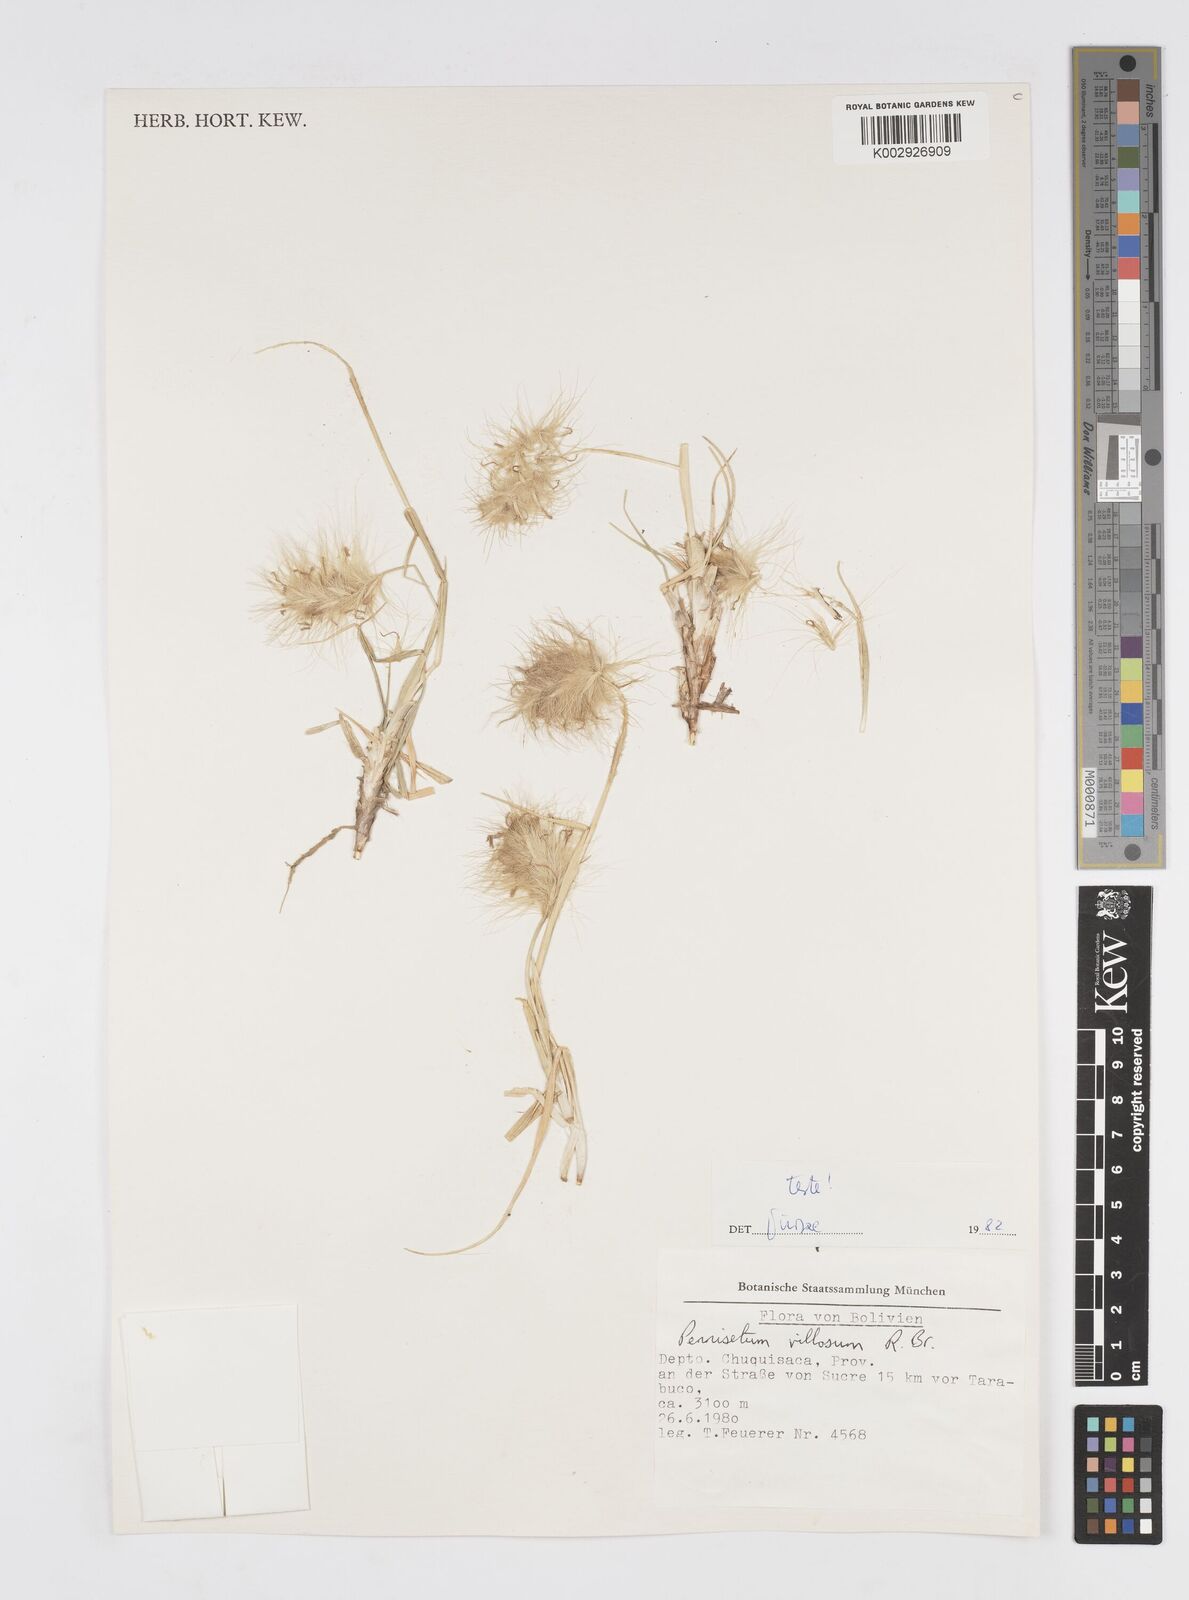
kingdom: Plantae
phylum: Tracheophyta
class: Liliopsida
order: Poales
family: Poaceae
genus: Cenchrus
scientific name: Cenchrus longisetus
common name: Feathertop
